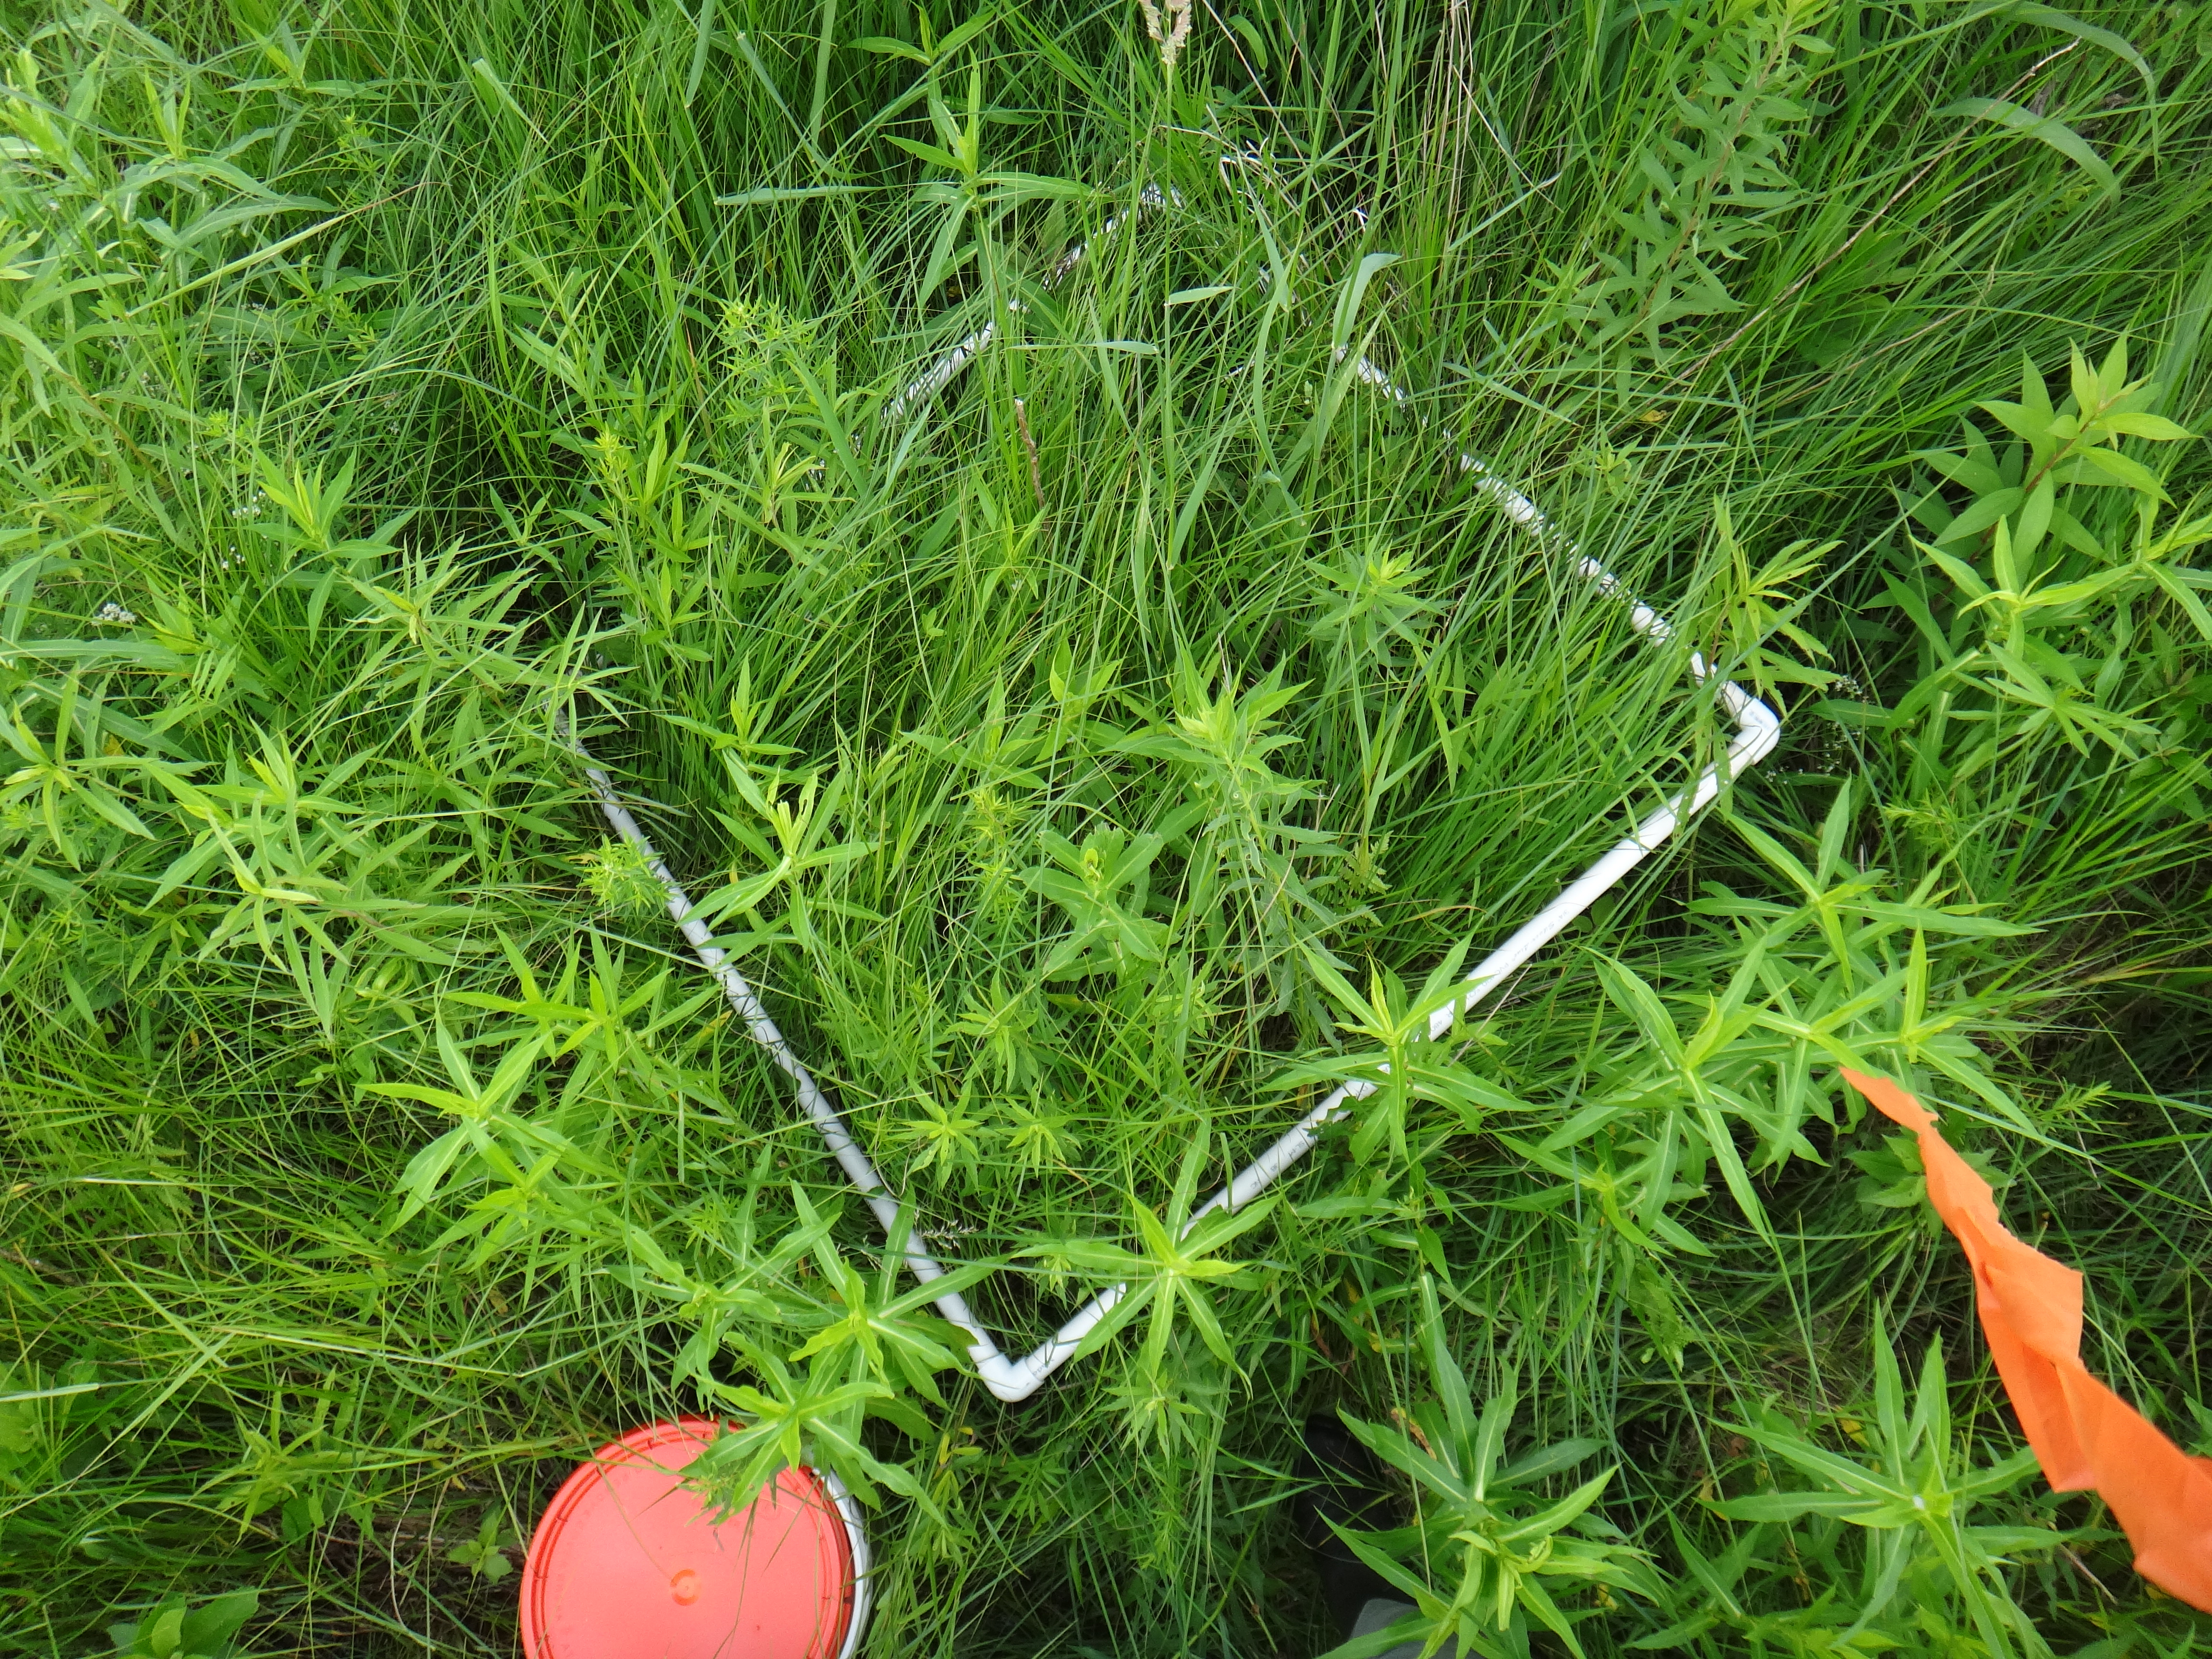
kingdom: Plantae
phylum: Tracheophyta
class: Liliopsida
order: Poales
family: Cyperaceae
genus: Carex
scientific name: Carex stricta
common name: Hummock sedge
